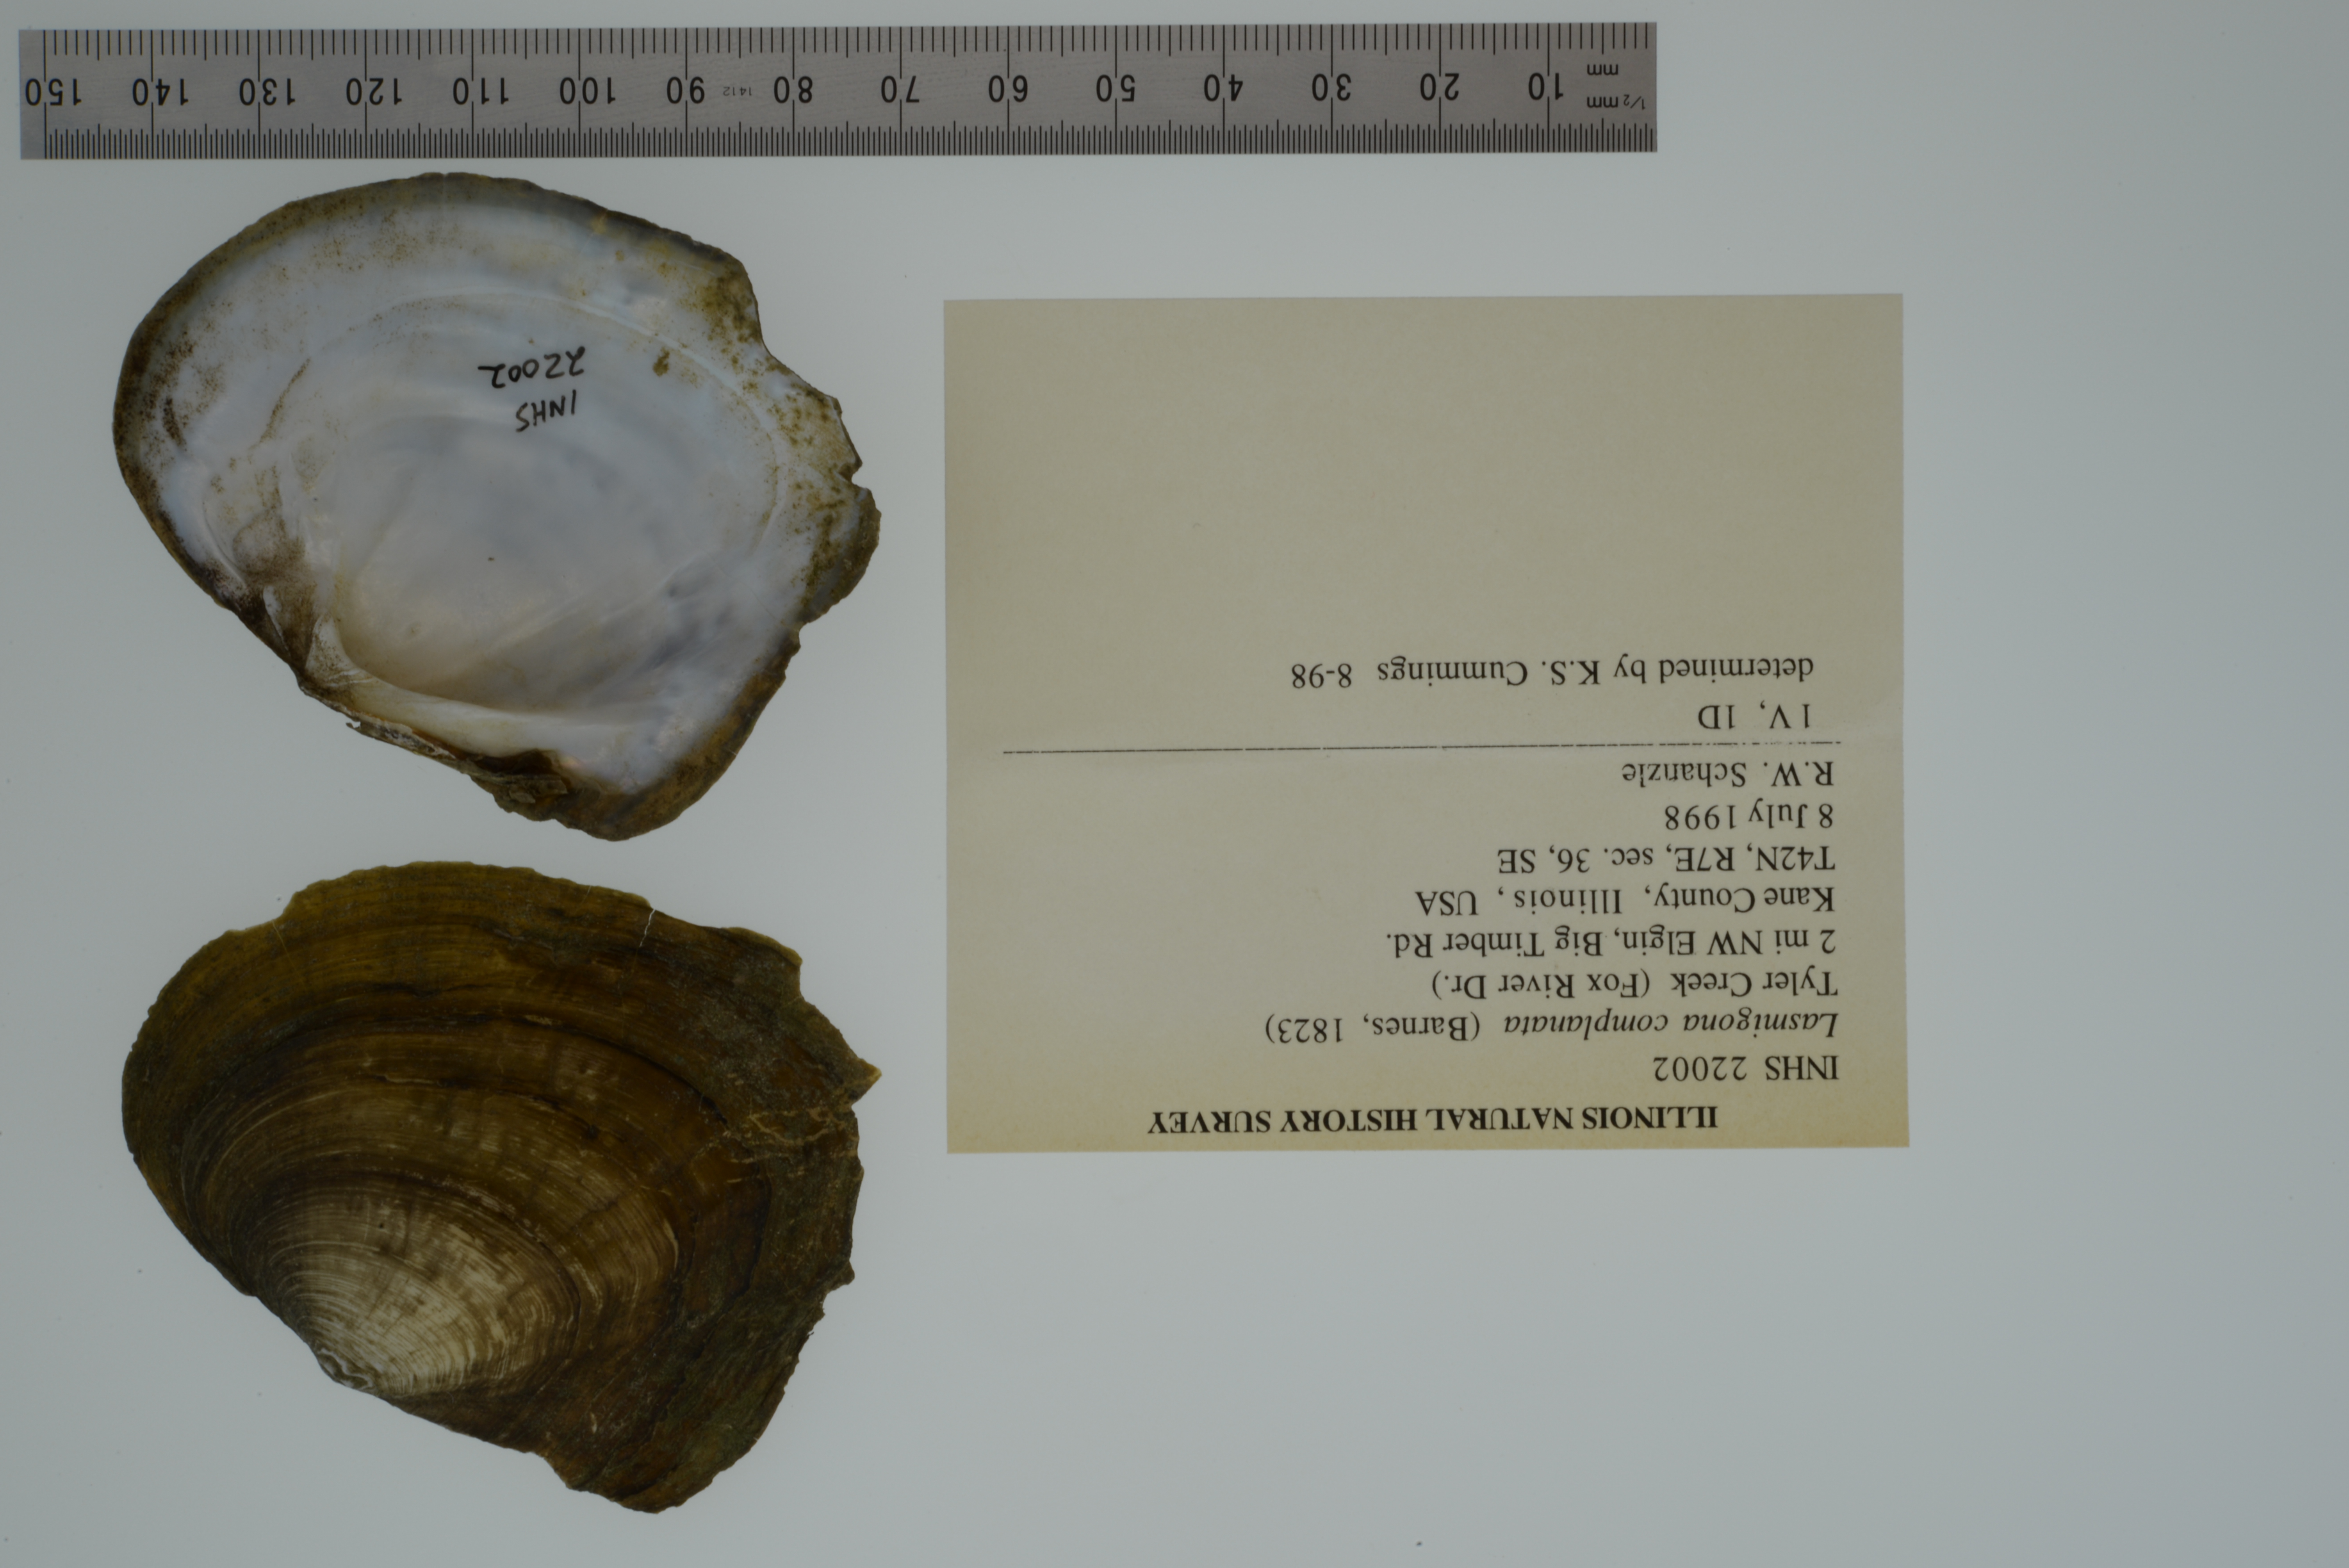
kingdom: Animalia
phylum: Mollusca
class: Bivalvia
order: Unionida
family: Unionidae
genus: Lasmigona
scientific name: Lasmigona complanata
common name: White heelsplitter
